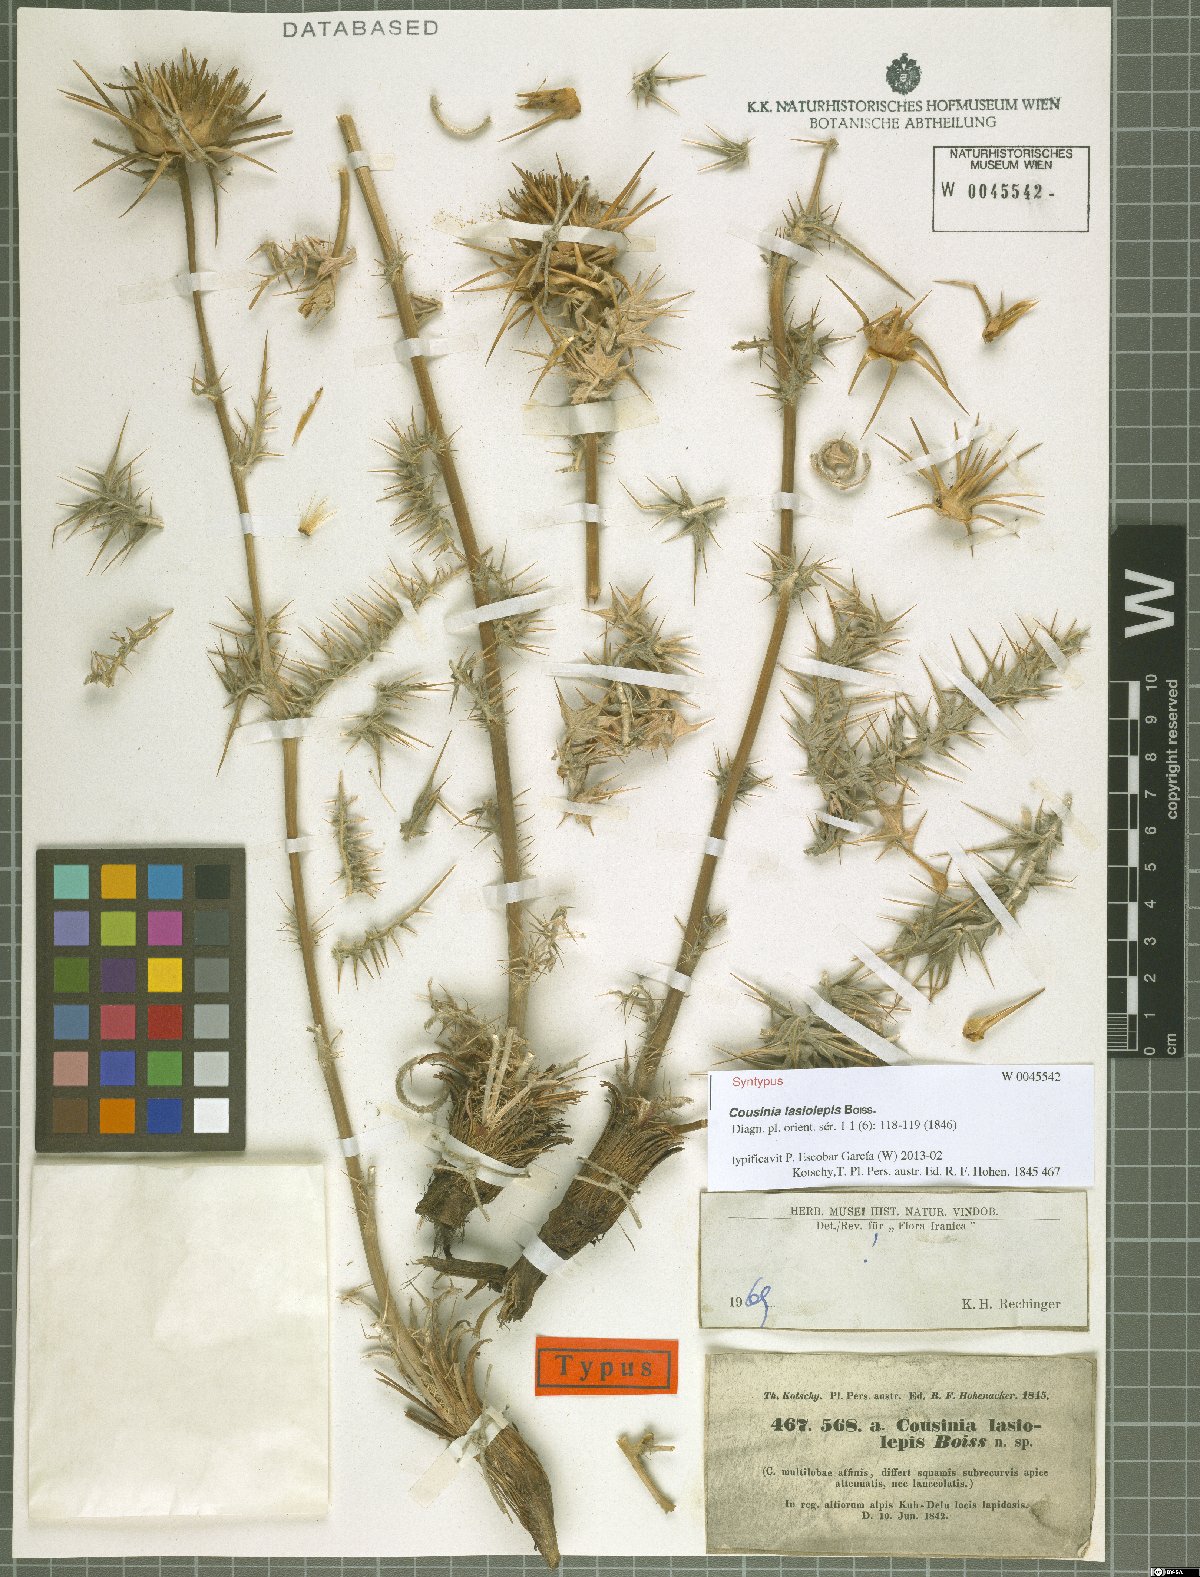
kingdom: Plantae
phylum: Tracheophyta
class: Magnoliopsida
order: Asterales
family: Asteraceae
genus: Cousinia
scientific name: Cousinia lasiolepis
